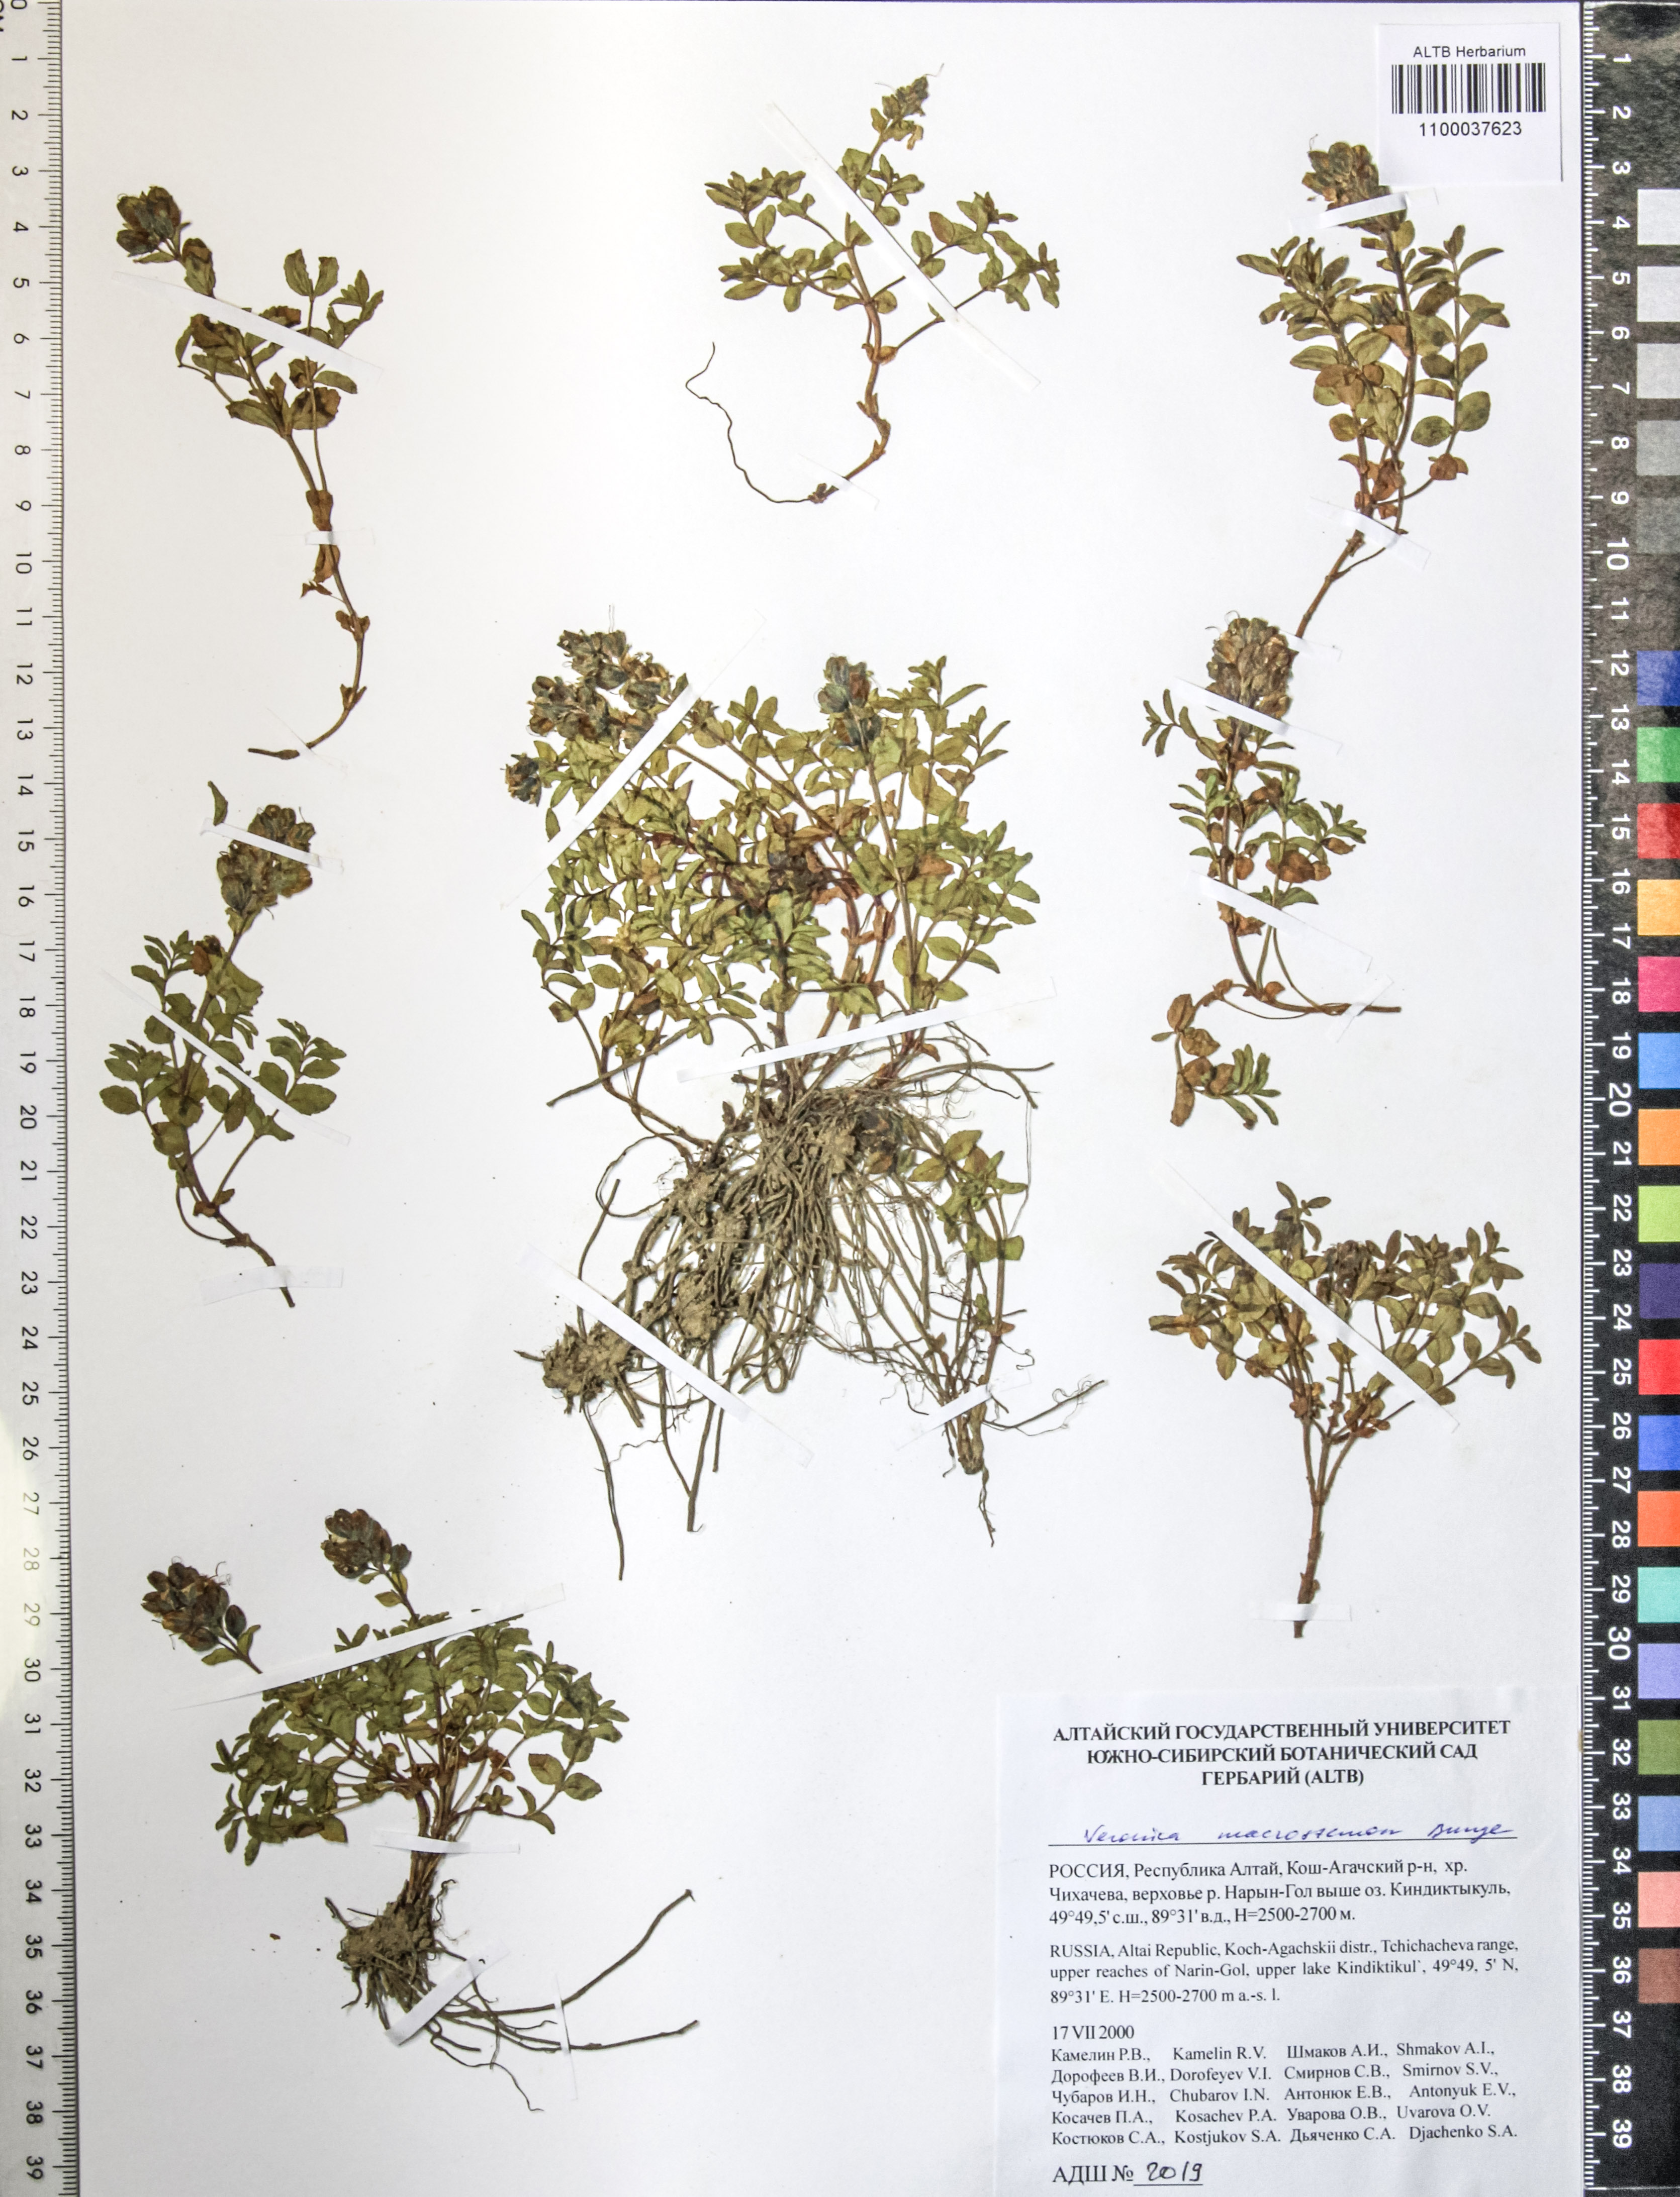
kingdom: Plantae
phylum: Tracheophyta
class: Magnoliopsida
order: Lamiales
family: Plantaginaceae
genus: Veronica
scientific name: Veronica macrostemon
